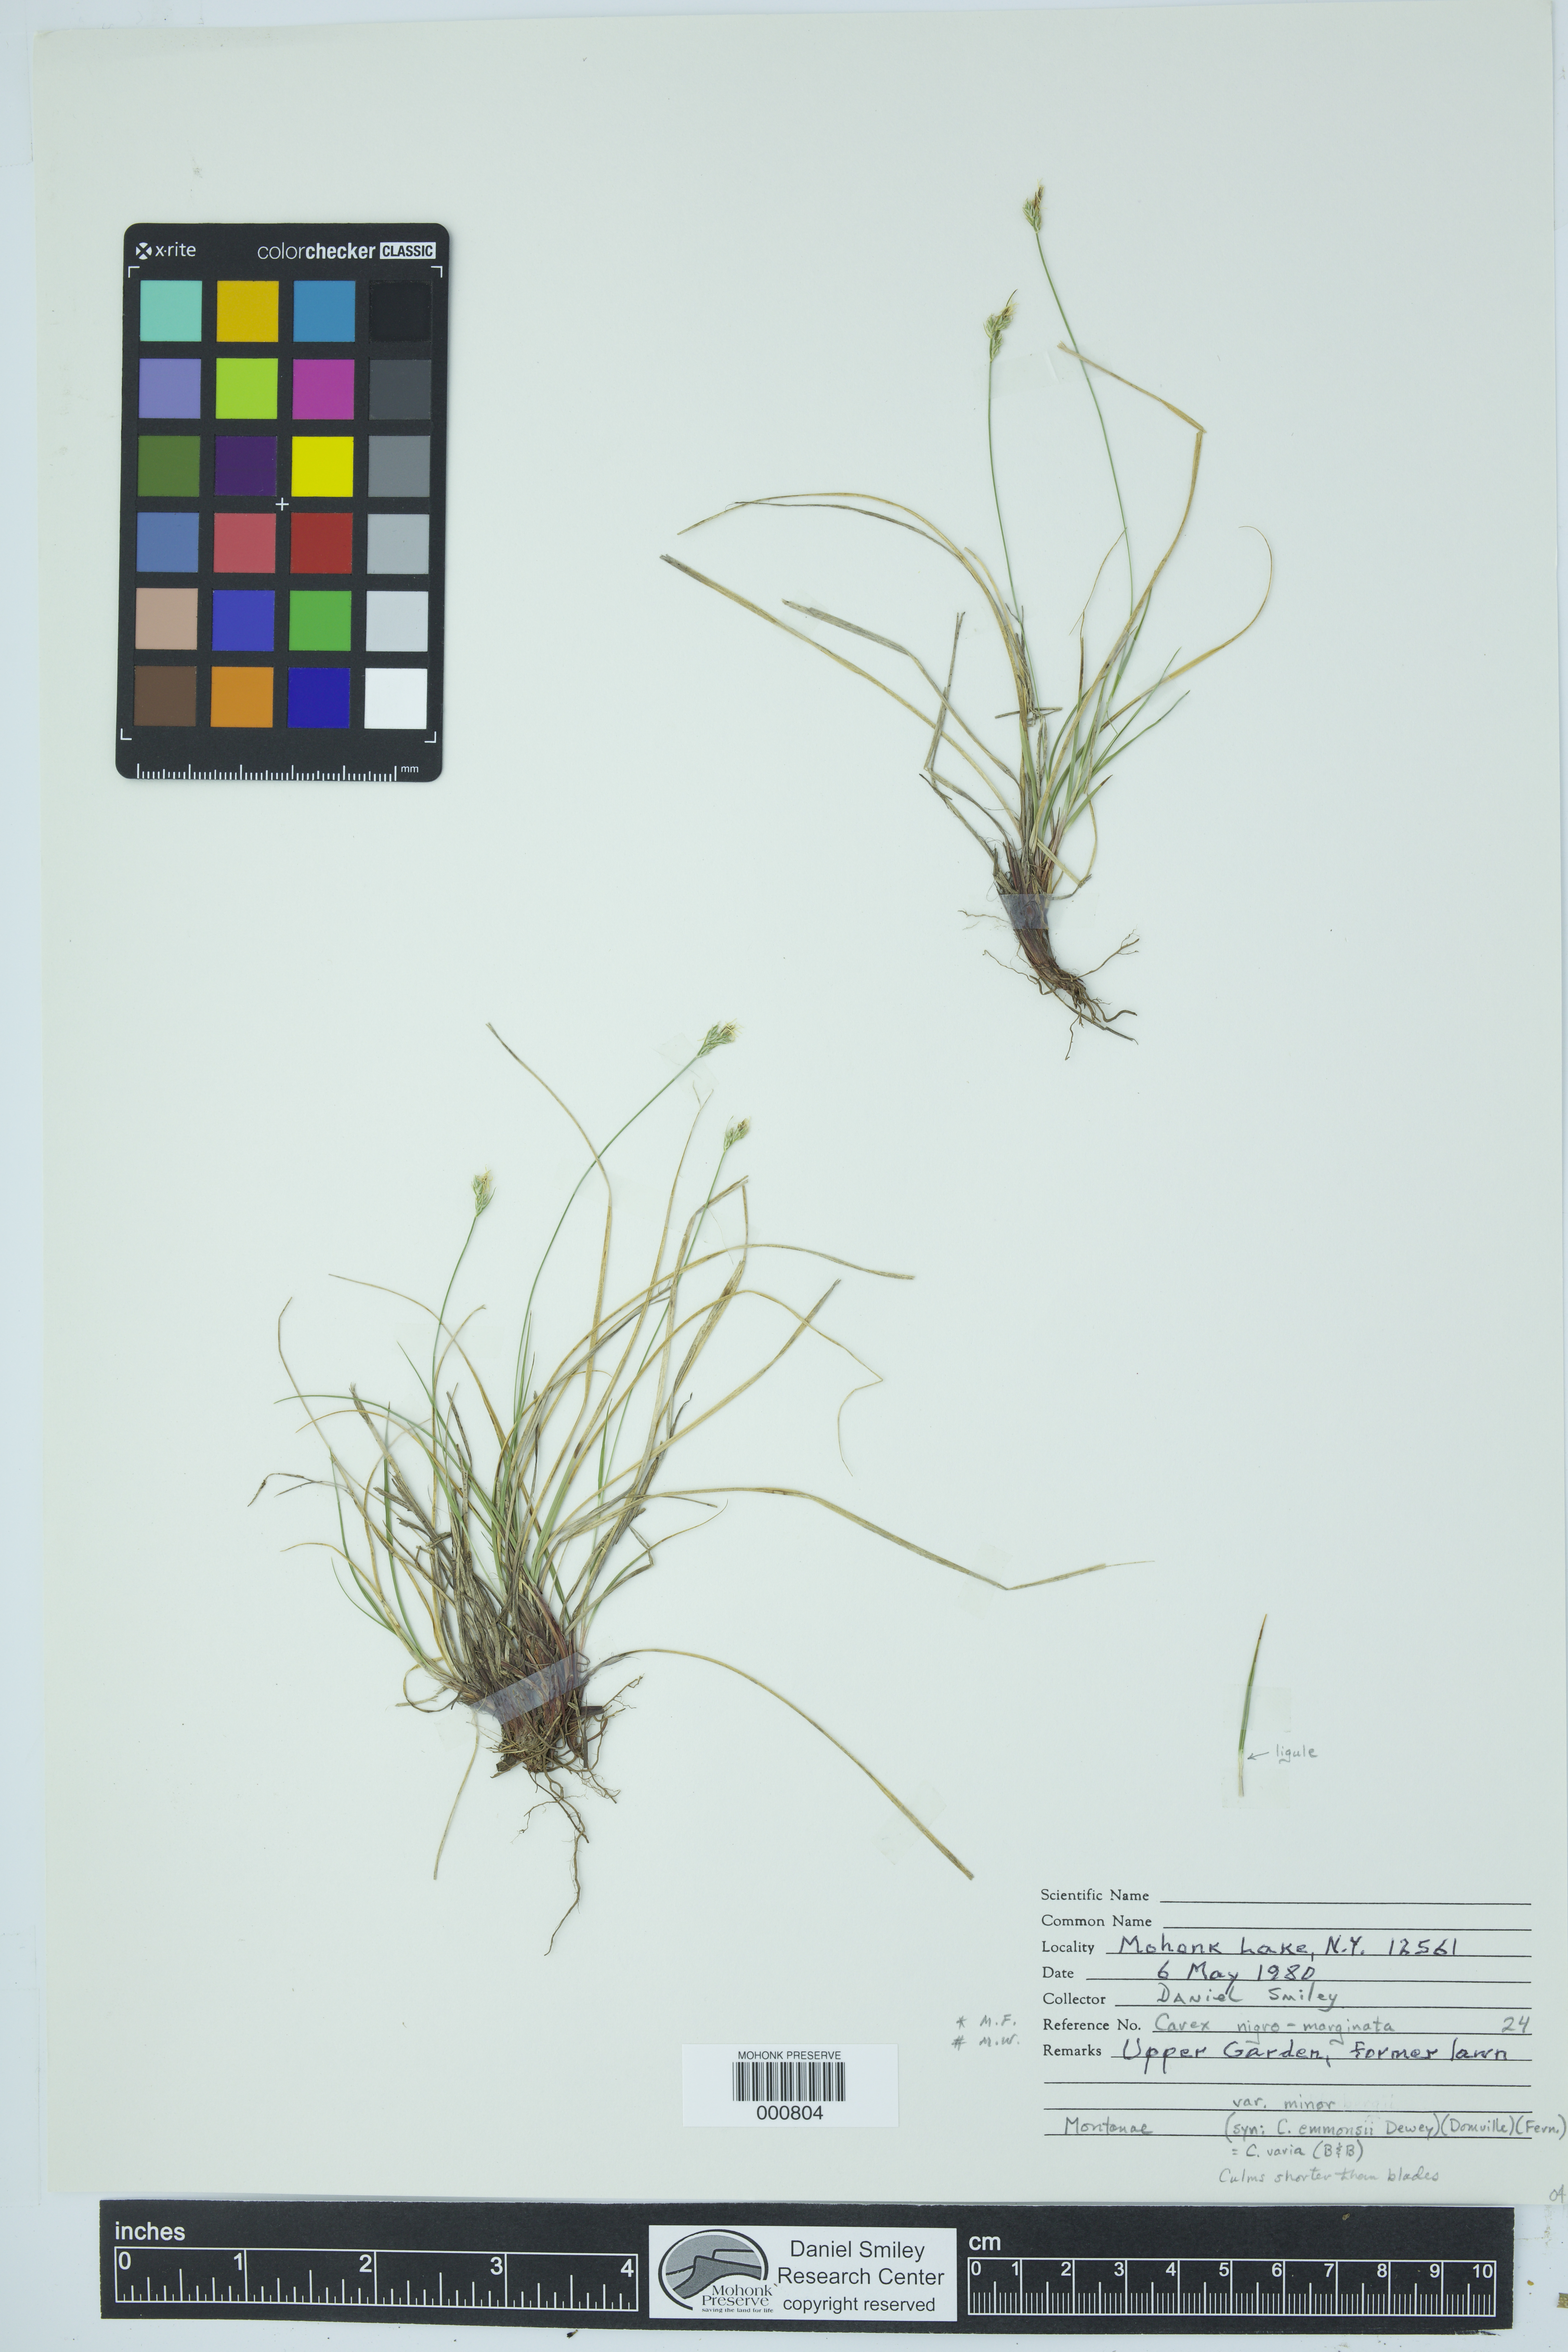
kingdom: Plantae
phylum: Tracheophyta
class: Liliopsida
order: Poales
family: Cyperaceae
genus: Carex
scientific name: Carex nigromarginata
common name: Black-edged sedge
